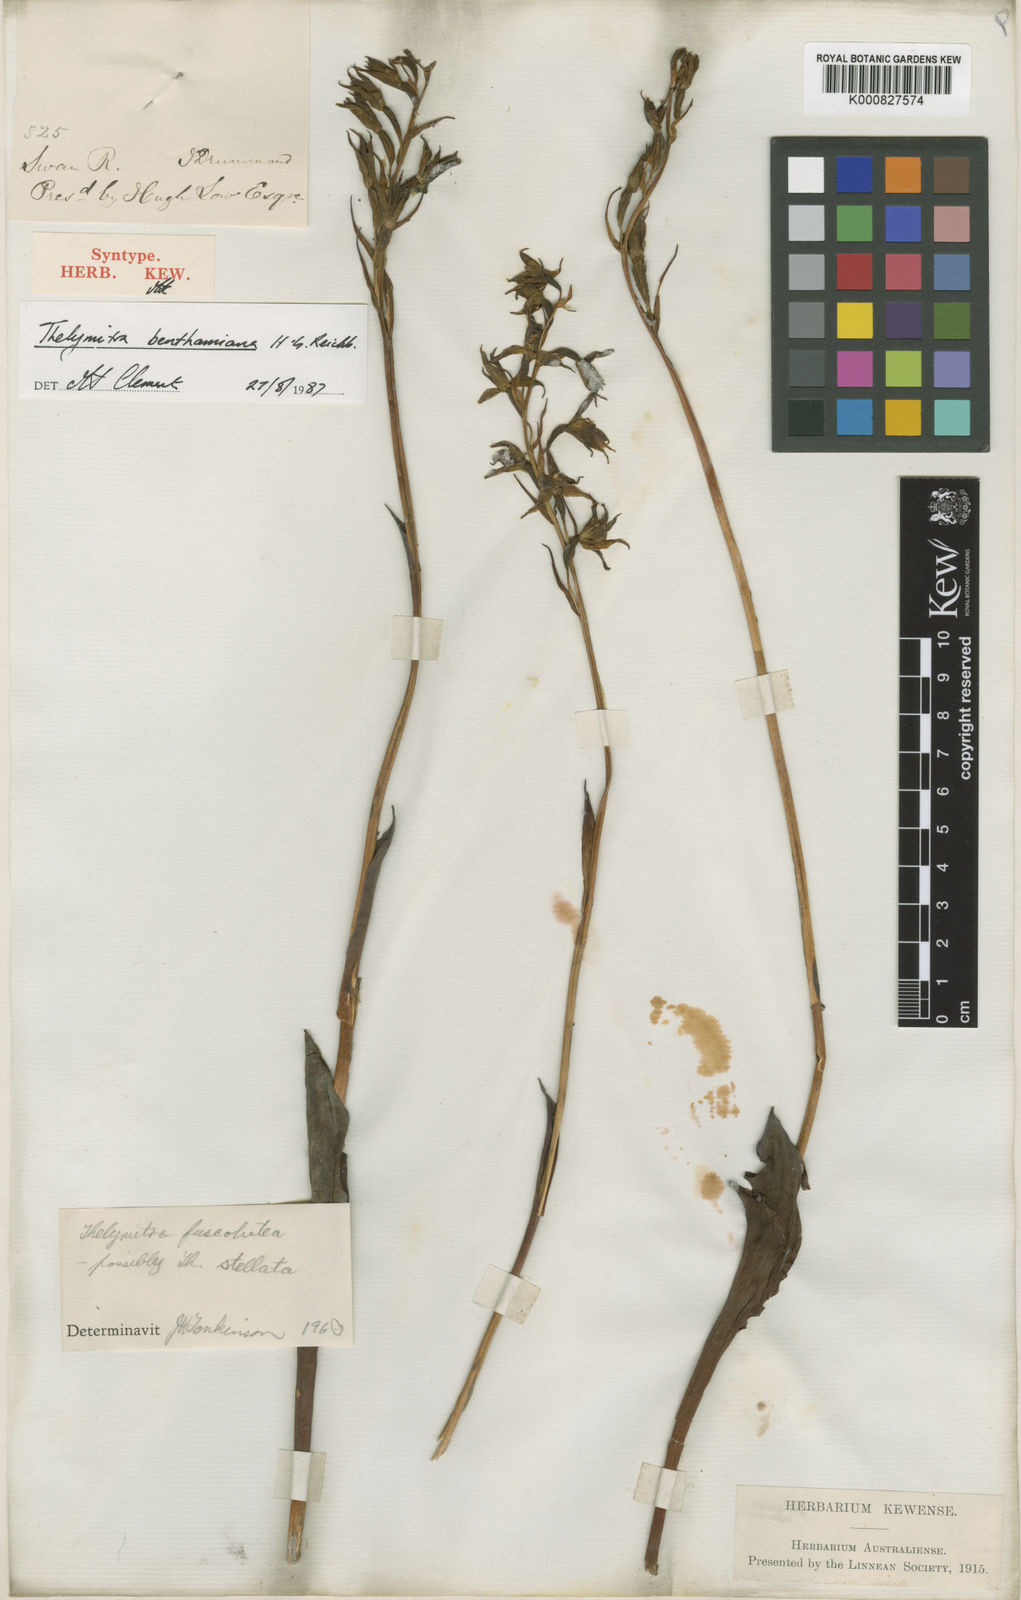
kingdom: Plantae
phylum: Tracheophyta
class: Liliopsida
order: Asparagales
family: Orchidaceae
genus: Thelymitra
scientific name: Thelymitra fuscolutea
